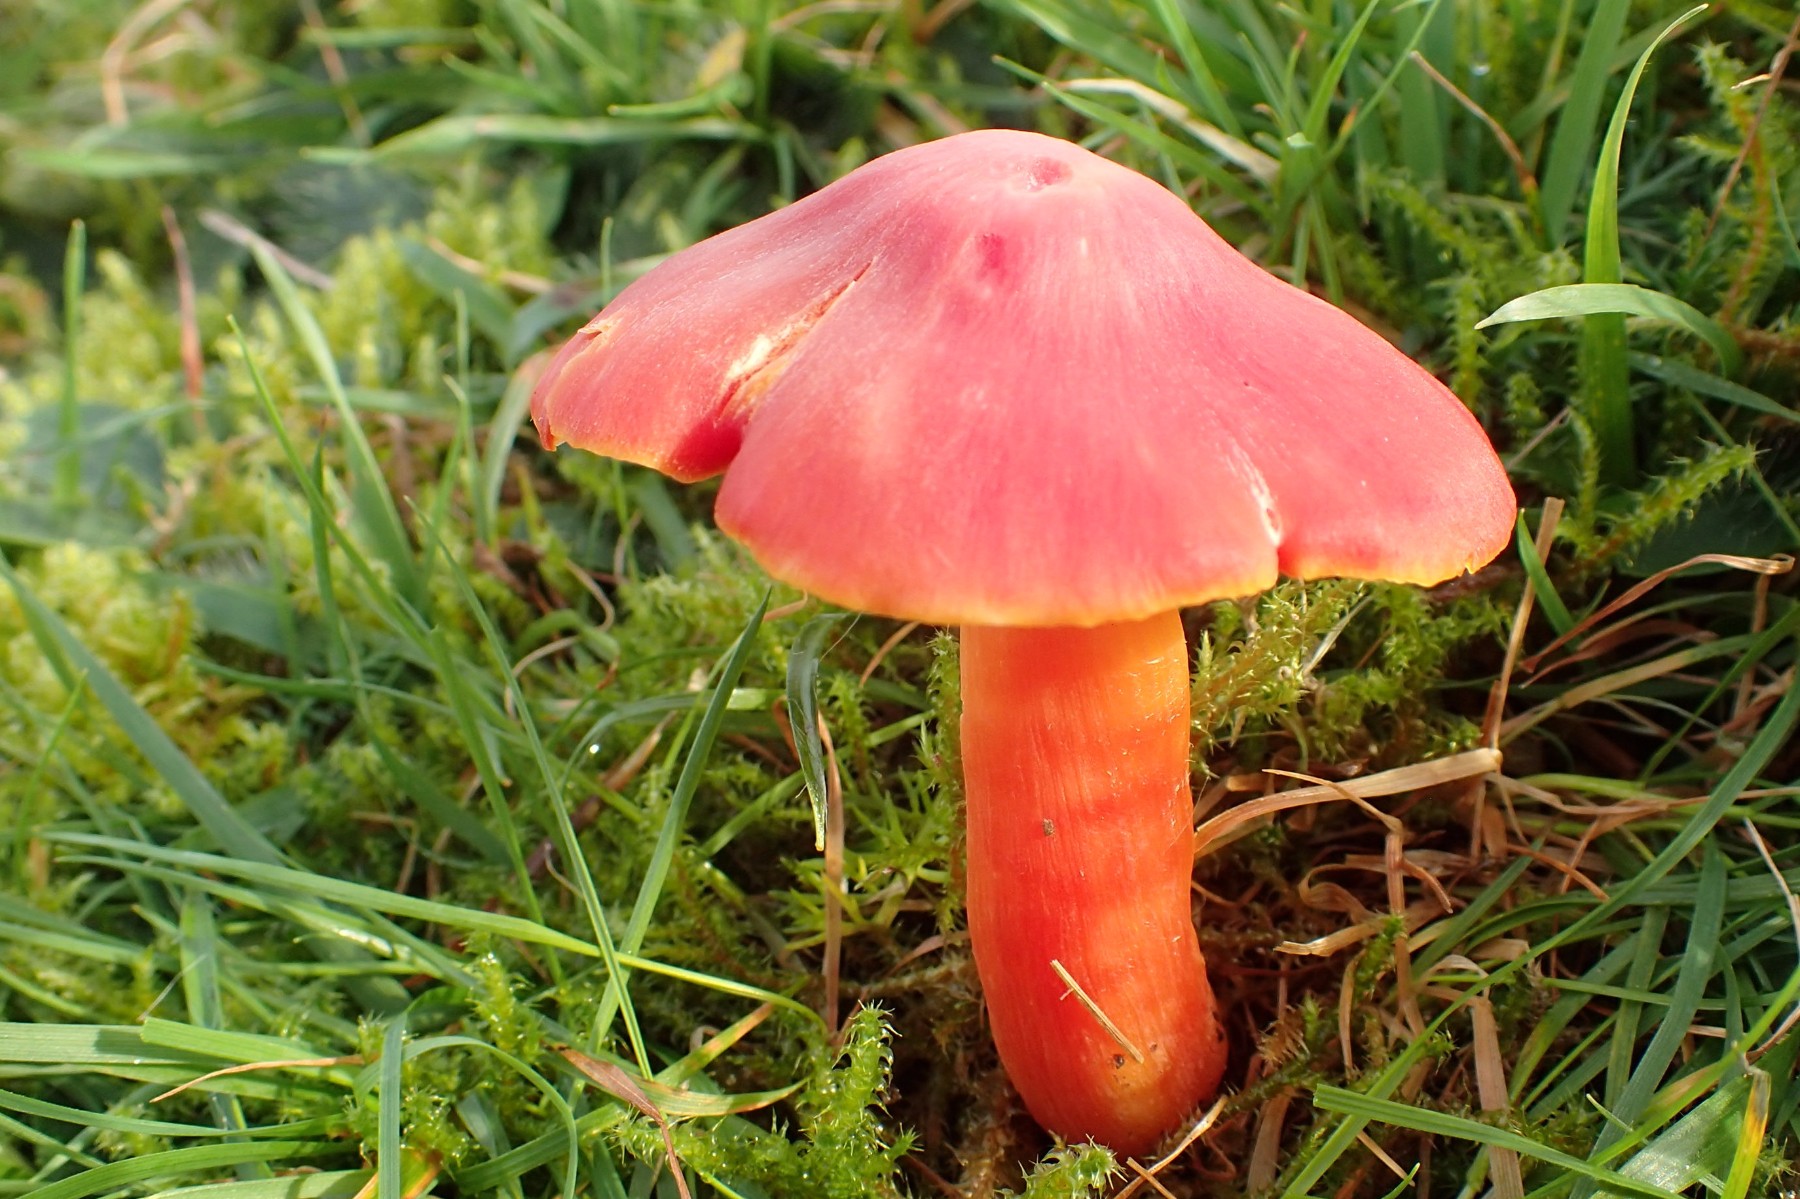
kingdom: Fungi
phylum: Basidiomycota
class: Agaricomycetes
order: Agaricales
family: Hygrophoraceae
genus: Hygrocybe
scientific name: Hygrocybe splendidissima
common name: knaldrød vokshat
